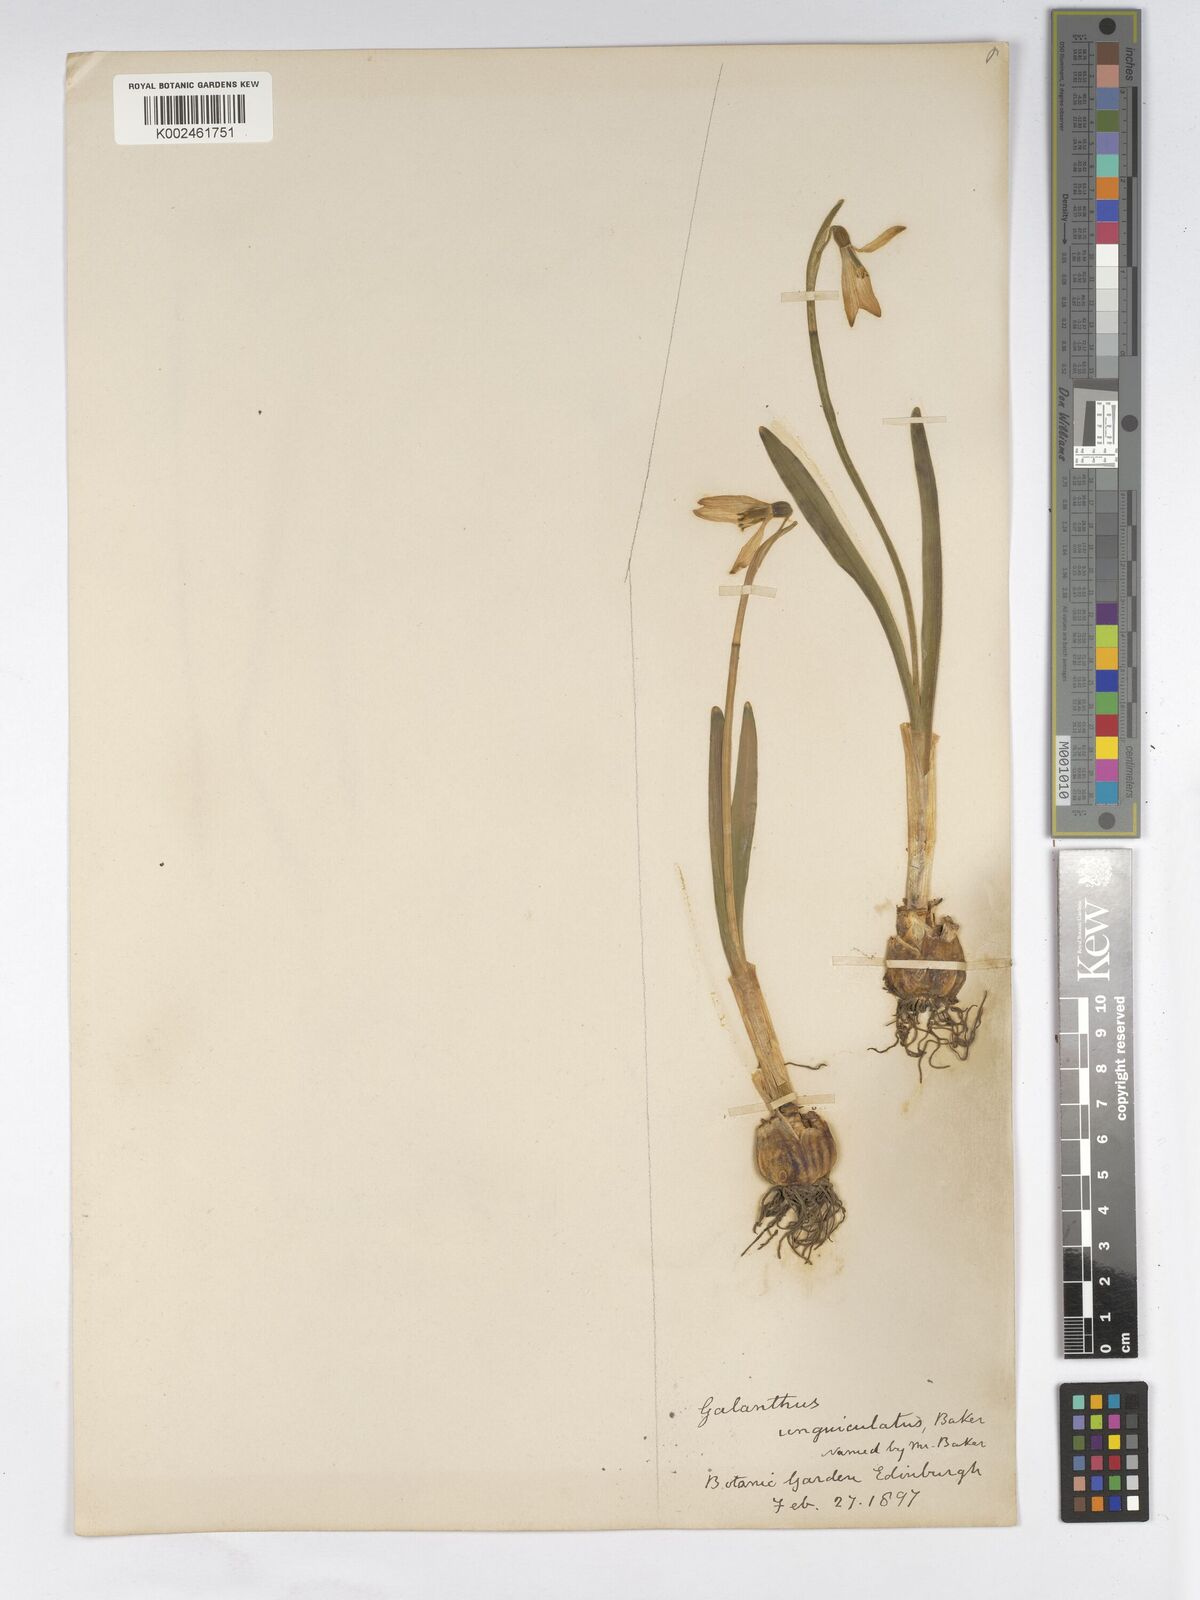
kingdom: Plantae
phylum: Tracheophyta
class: Liliopsida
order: Asparagales
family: Amaryllidaceae
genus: Galanthus
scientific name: Galanthus elwesii
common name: Greater snowdrop
